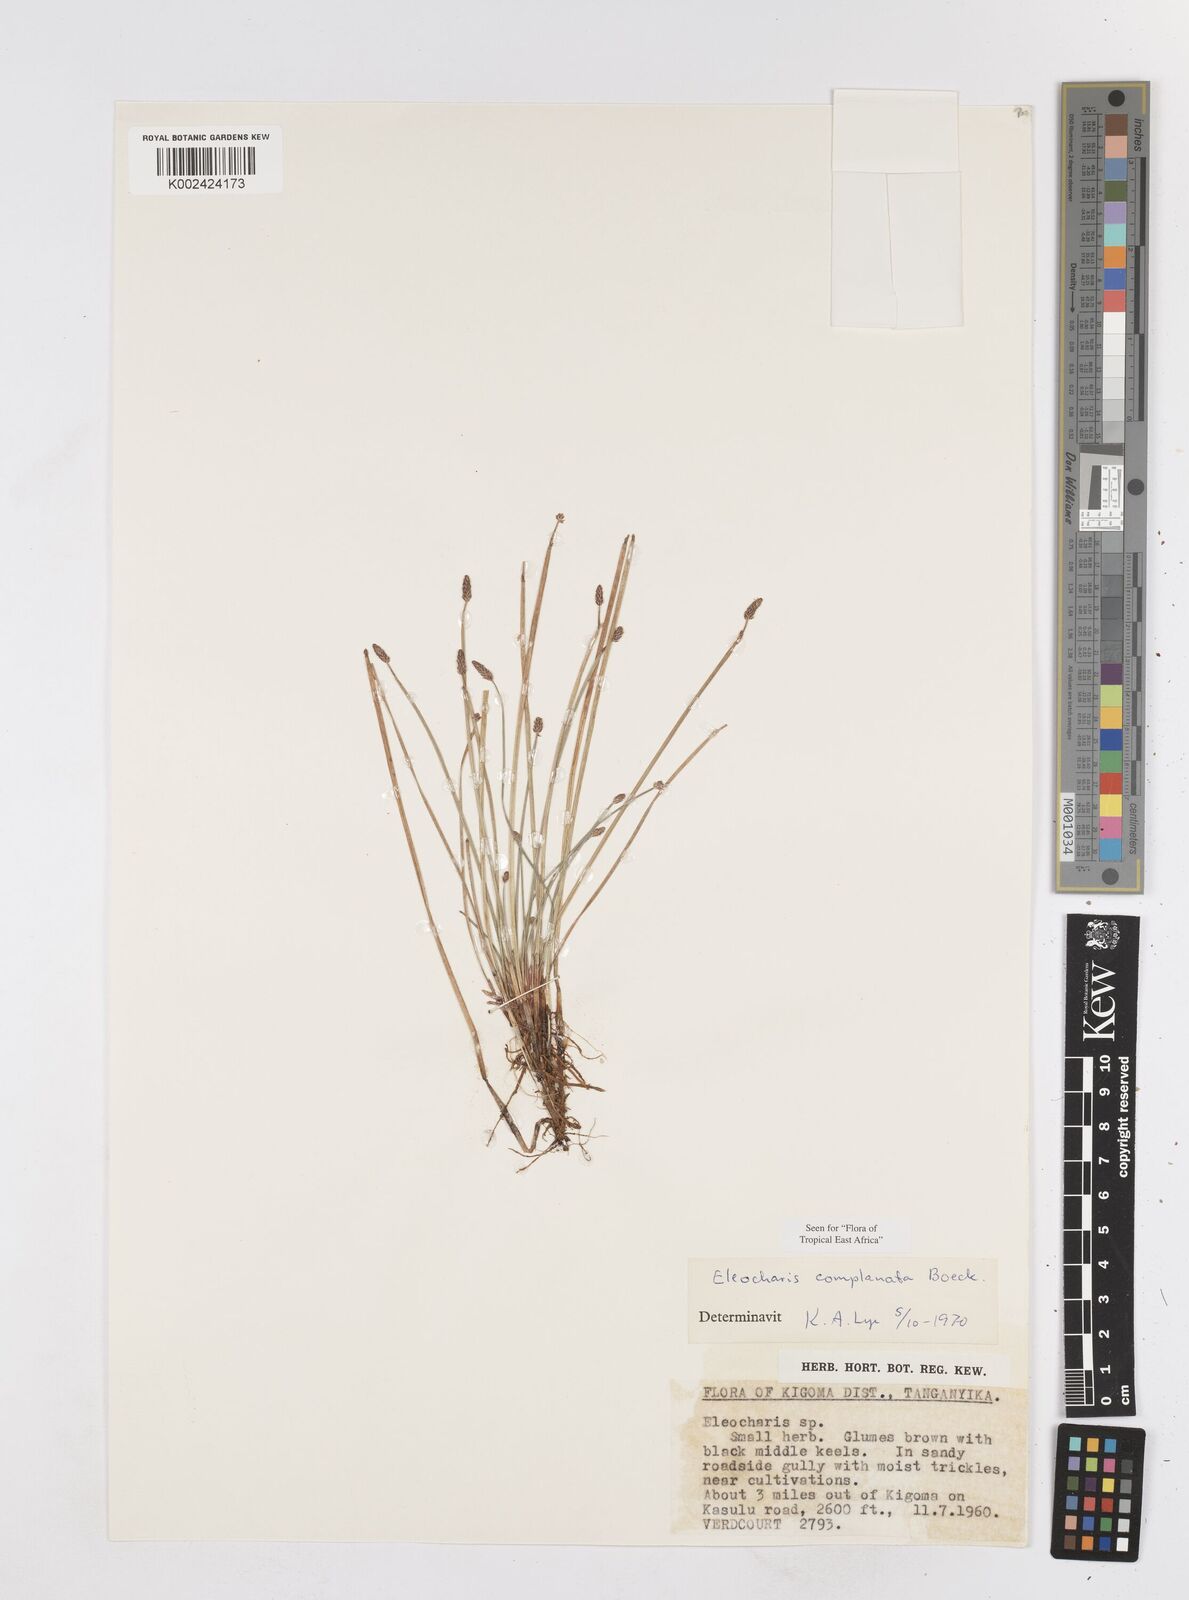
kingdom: Plantae
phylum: Tracheophyta
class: Liliopsida
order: Poales
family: Cyperaceae
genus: Eleocharis
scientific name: Eleocharis complanata
